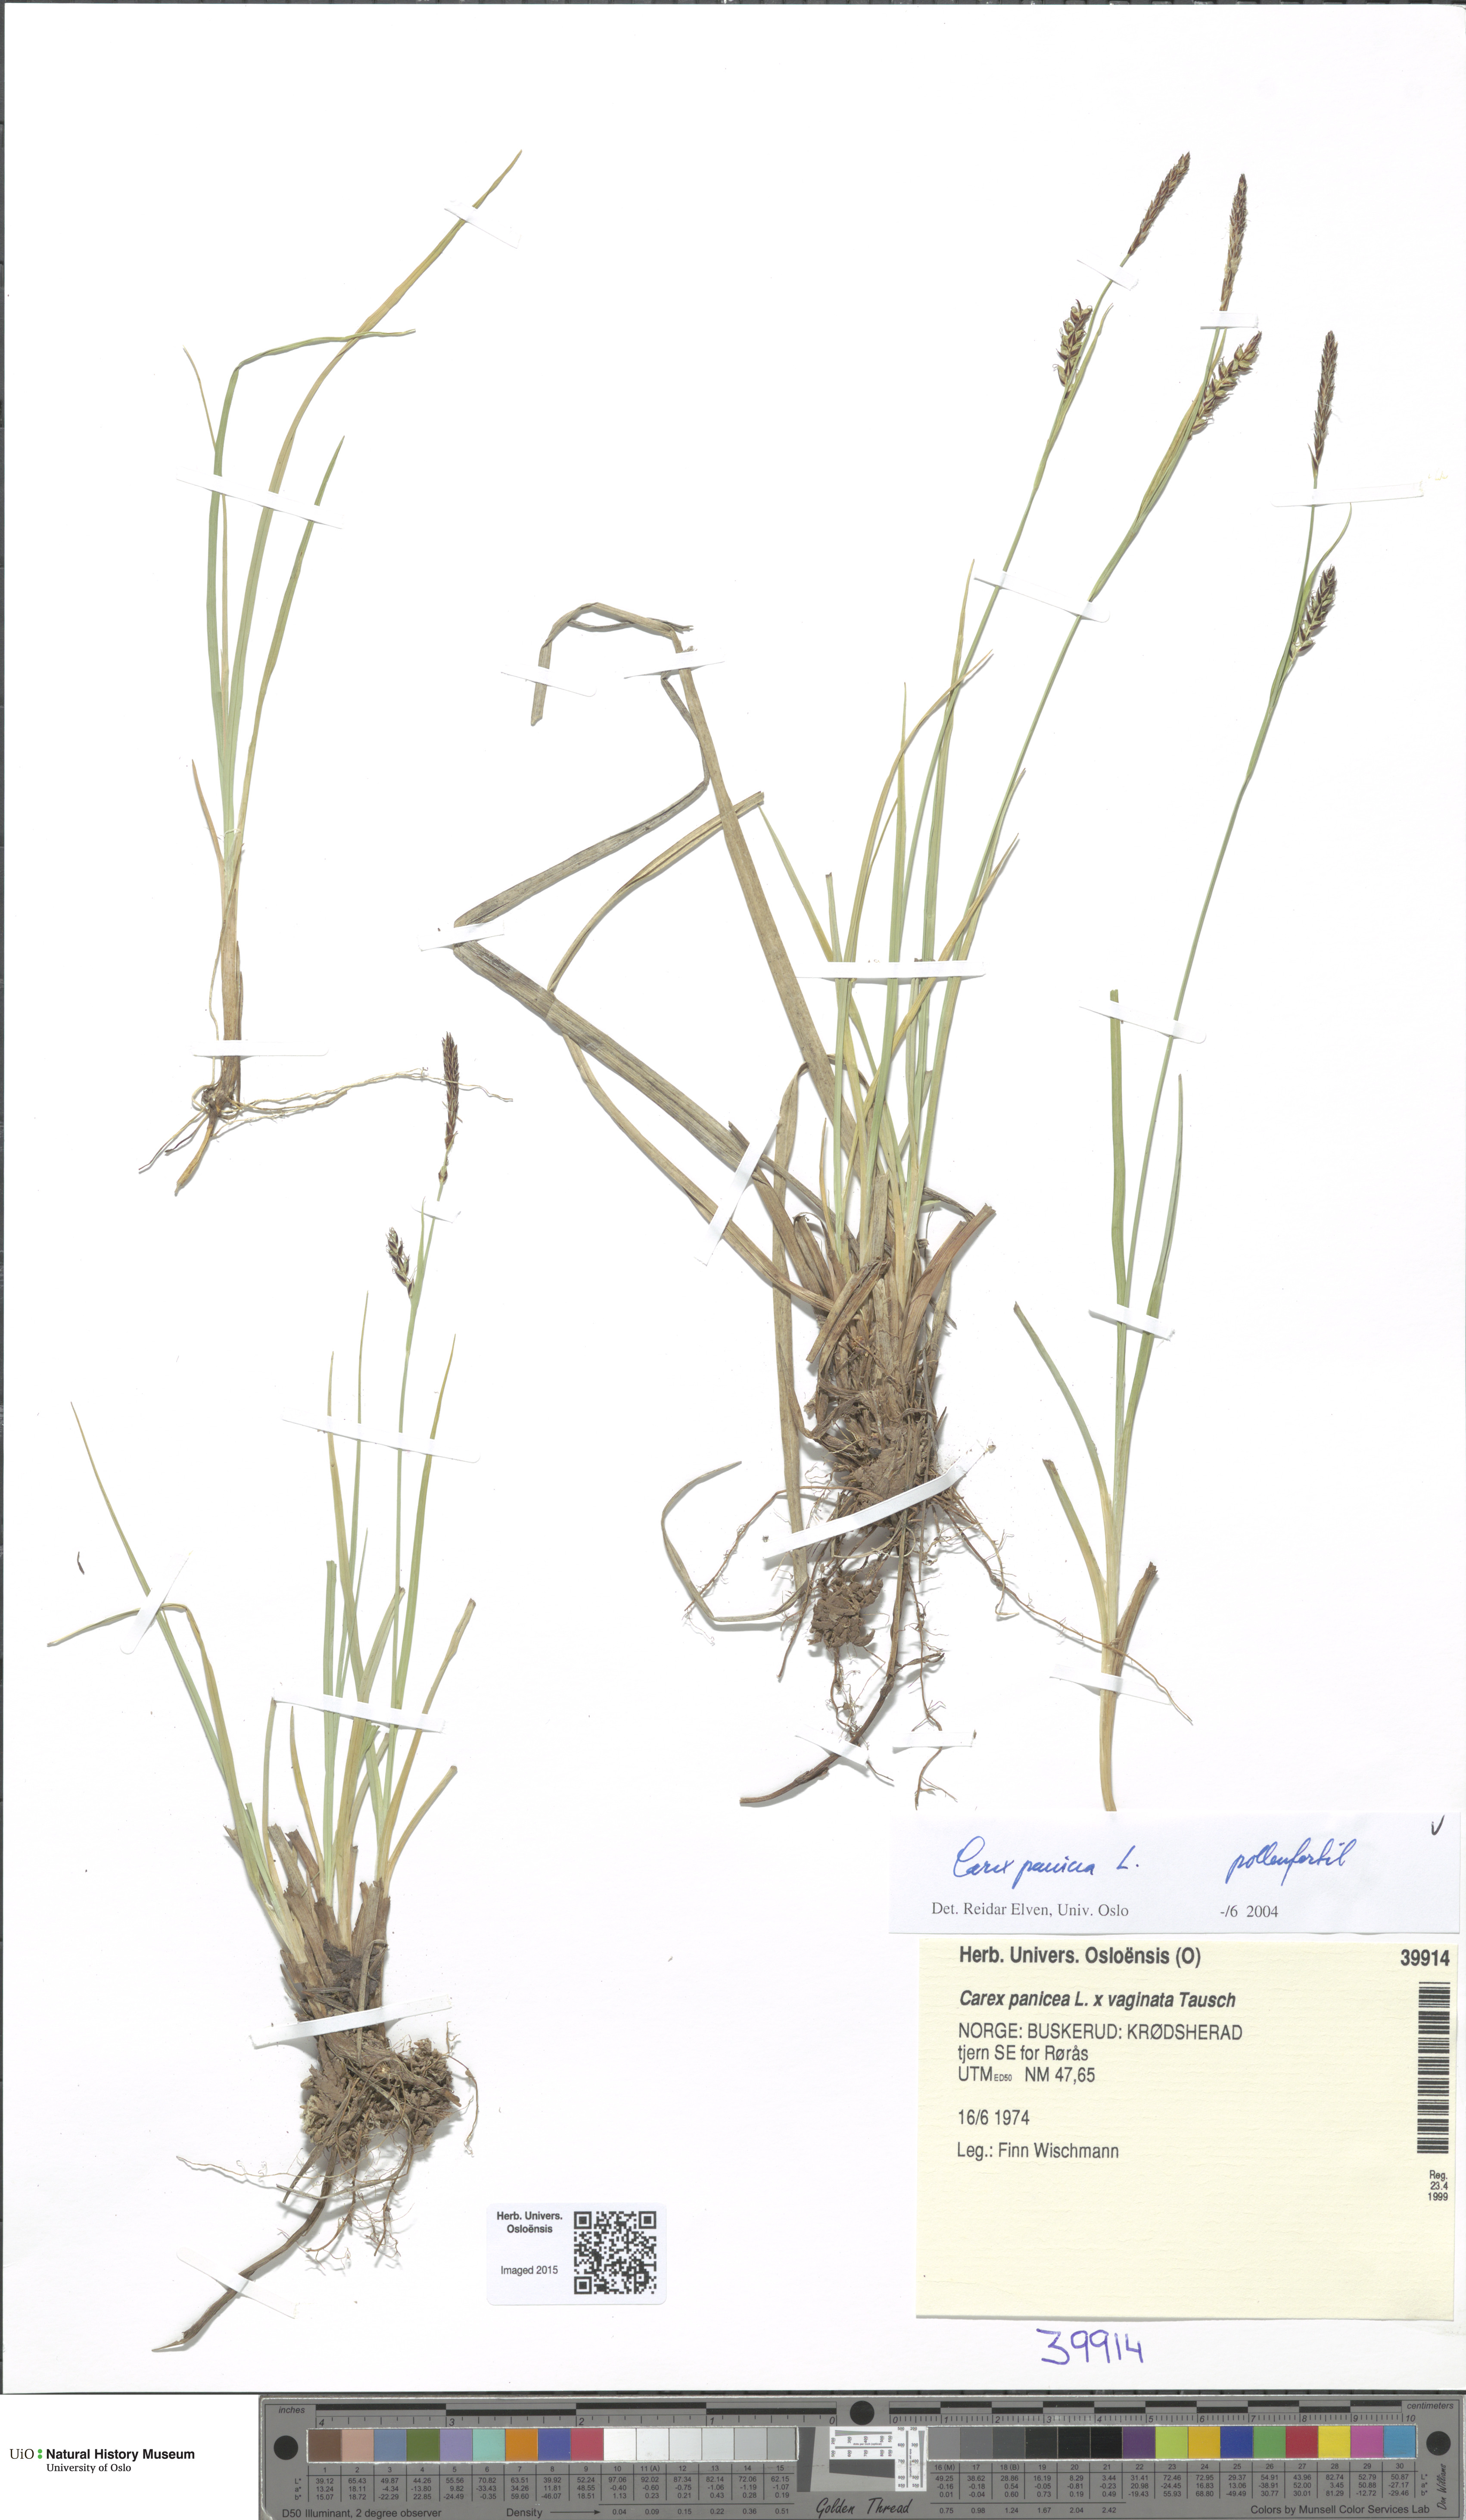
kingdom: Plantae
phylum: Tracheophyta
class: Liliopsida
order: Poales
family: Cyperaceae
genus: Carex
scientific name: Carex panicea
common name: Carnation sedge
